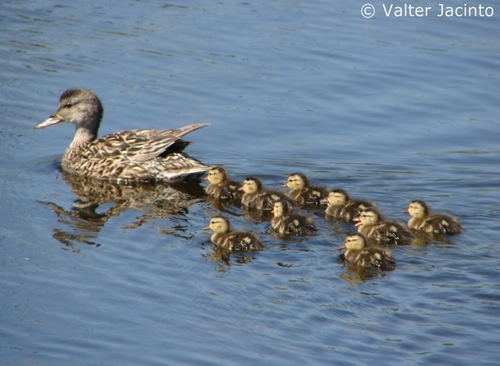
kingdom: Animalia
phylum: Chordata
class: Aves
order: Anseriformes
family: Anatidae
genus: Anas
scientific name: Anas platyrhynchos
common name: Mallard
